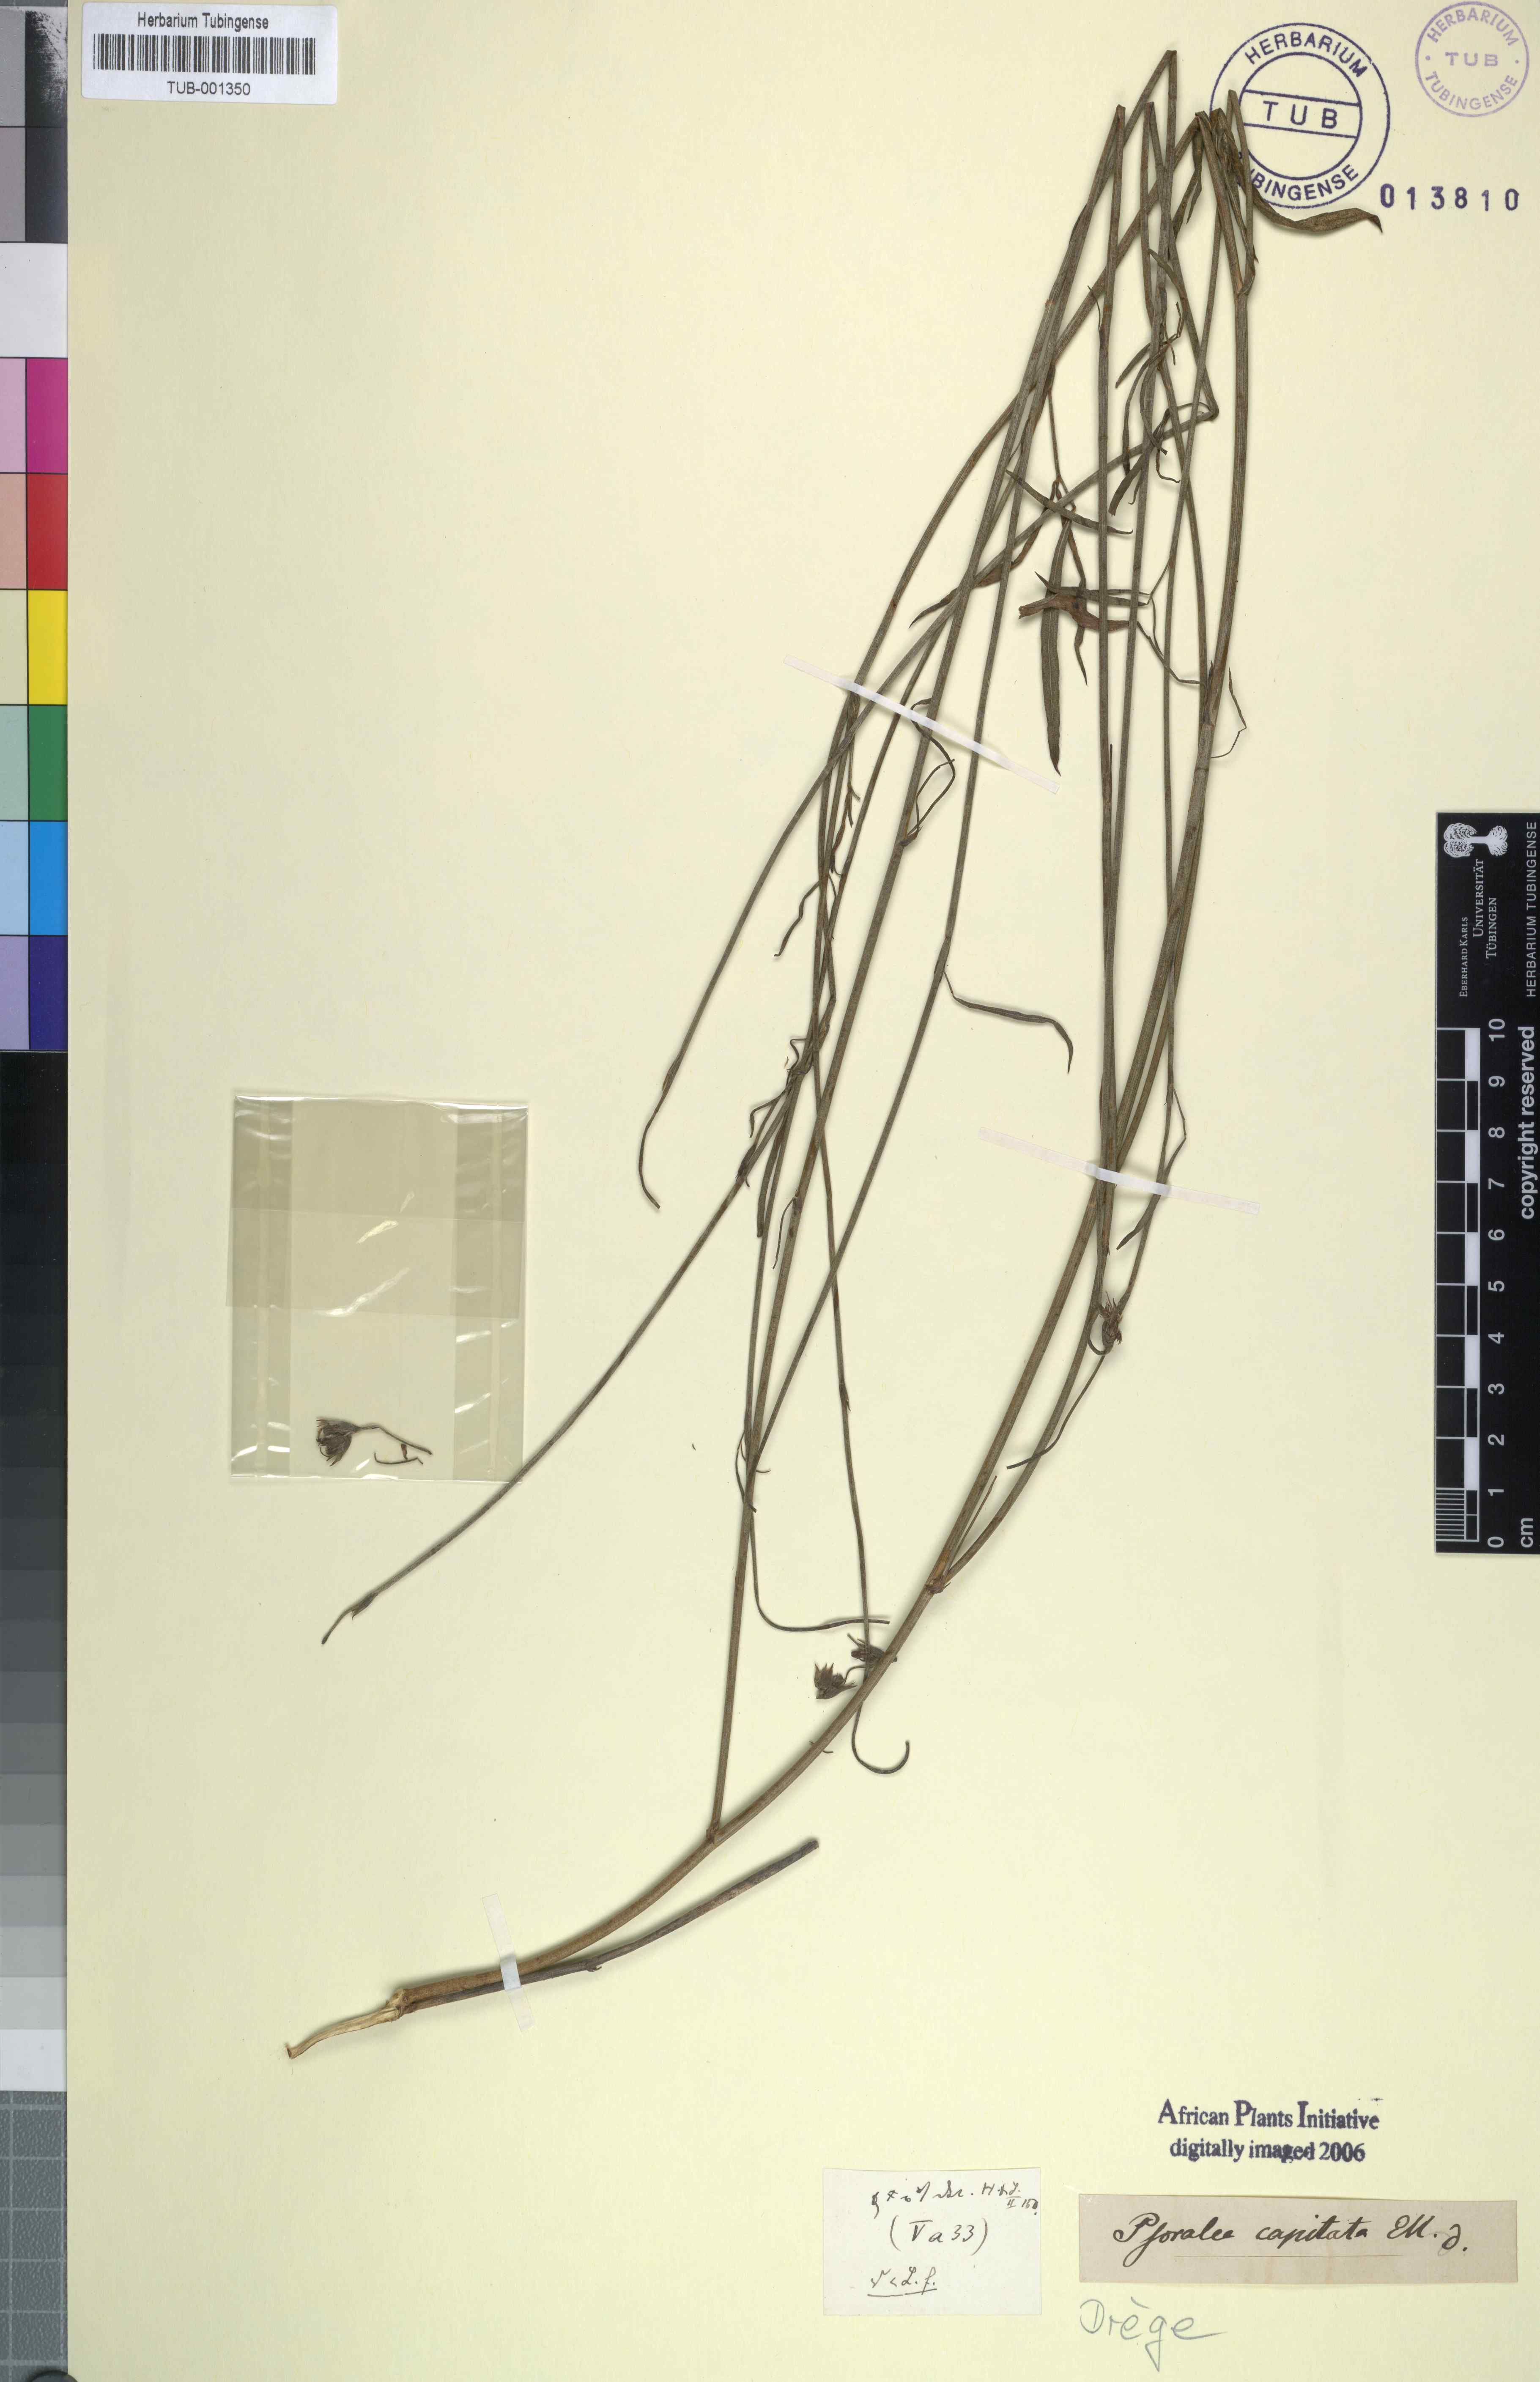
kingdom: Plantae
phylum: Tracheophyta
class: Magnoliopsida
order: Fabales
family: Fabaceae
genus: Psoralea
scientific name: Psoralea ensifolia
